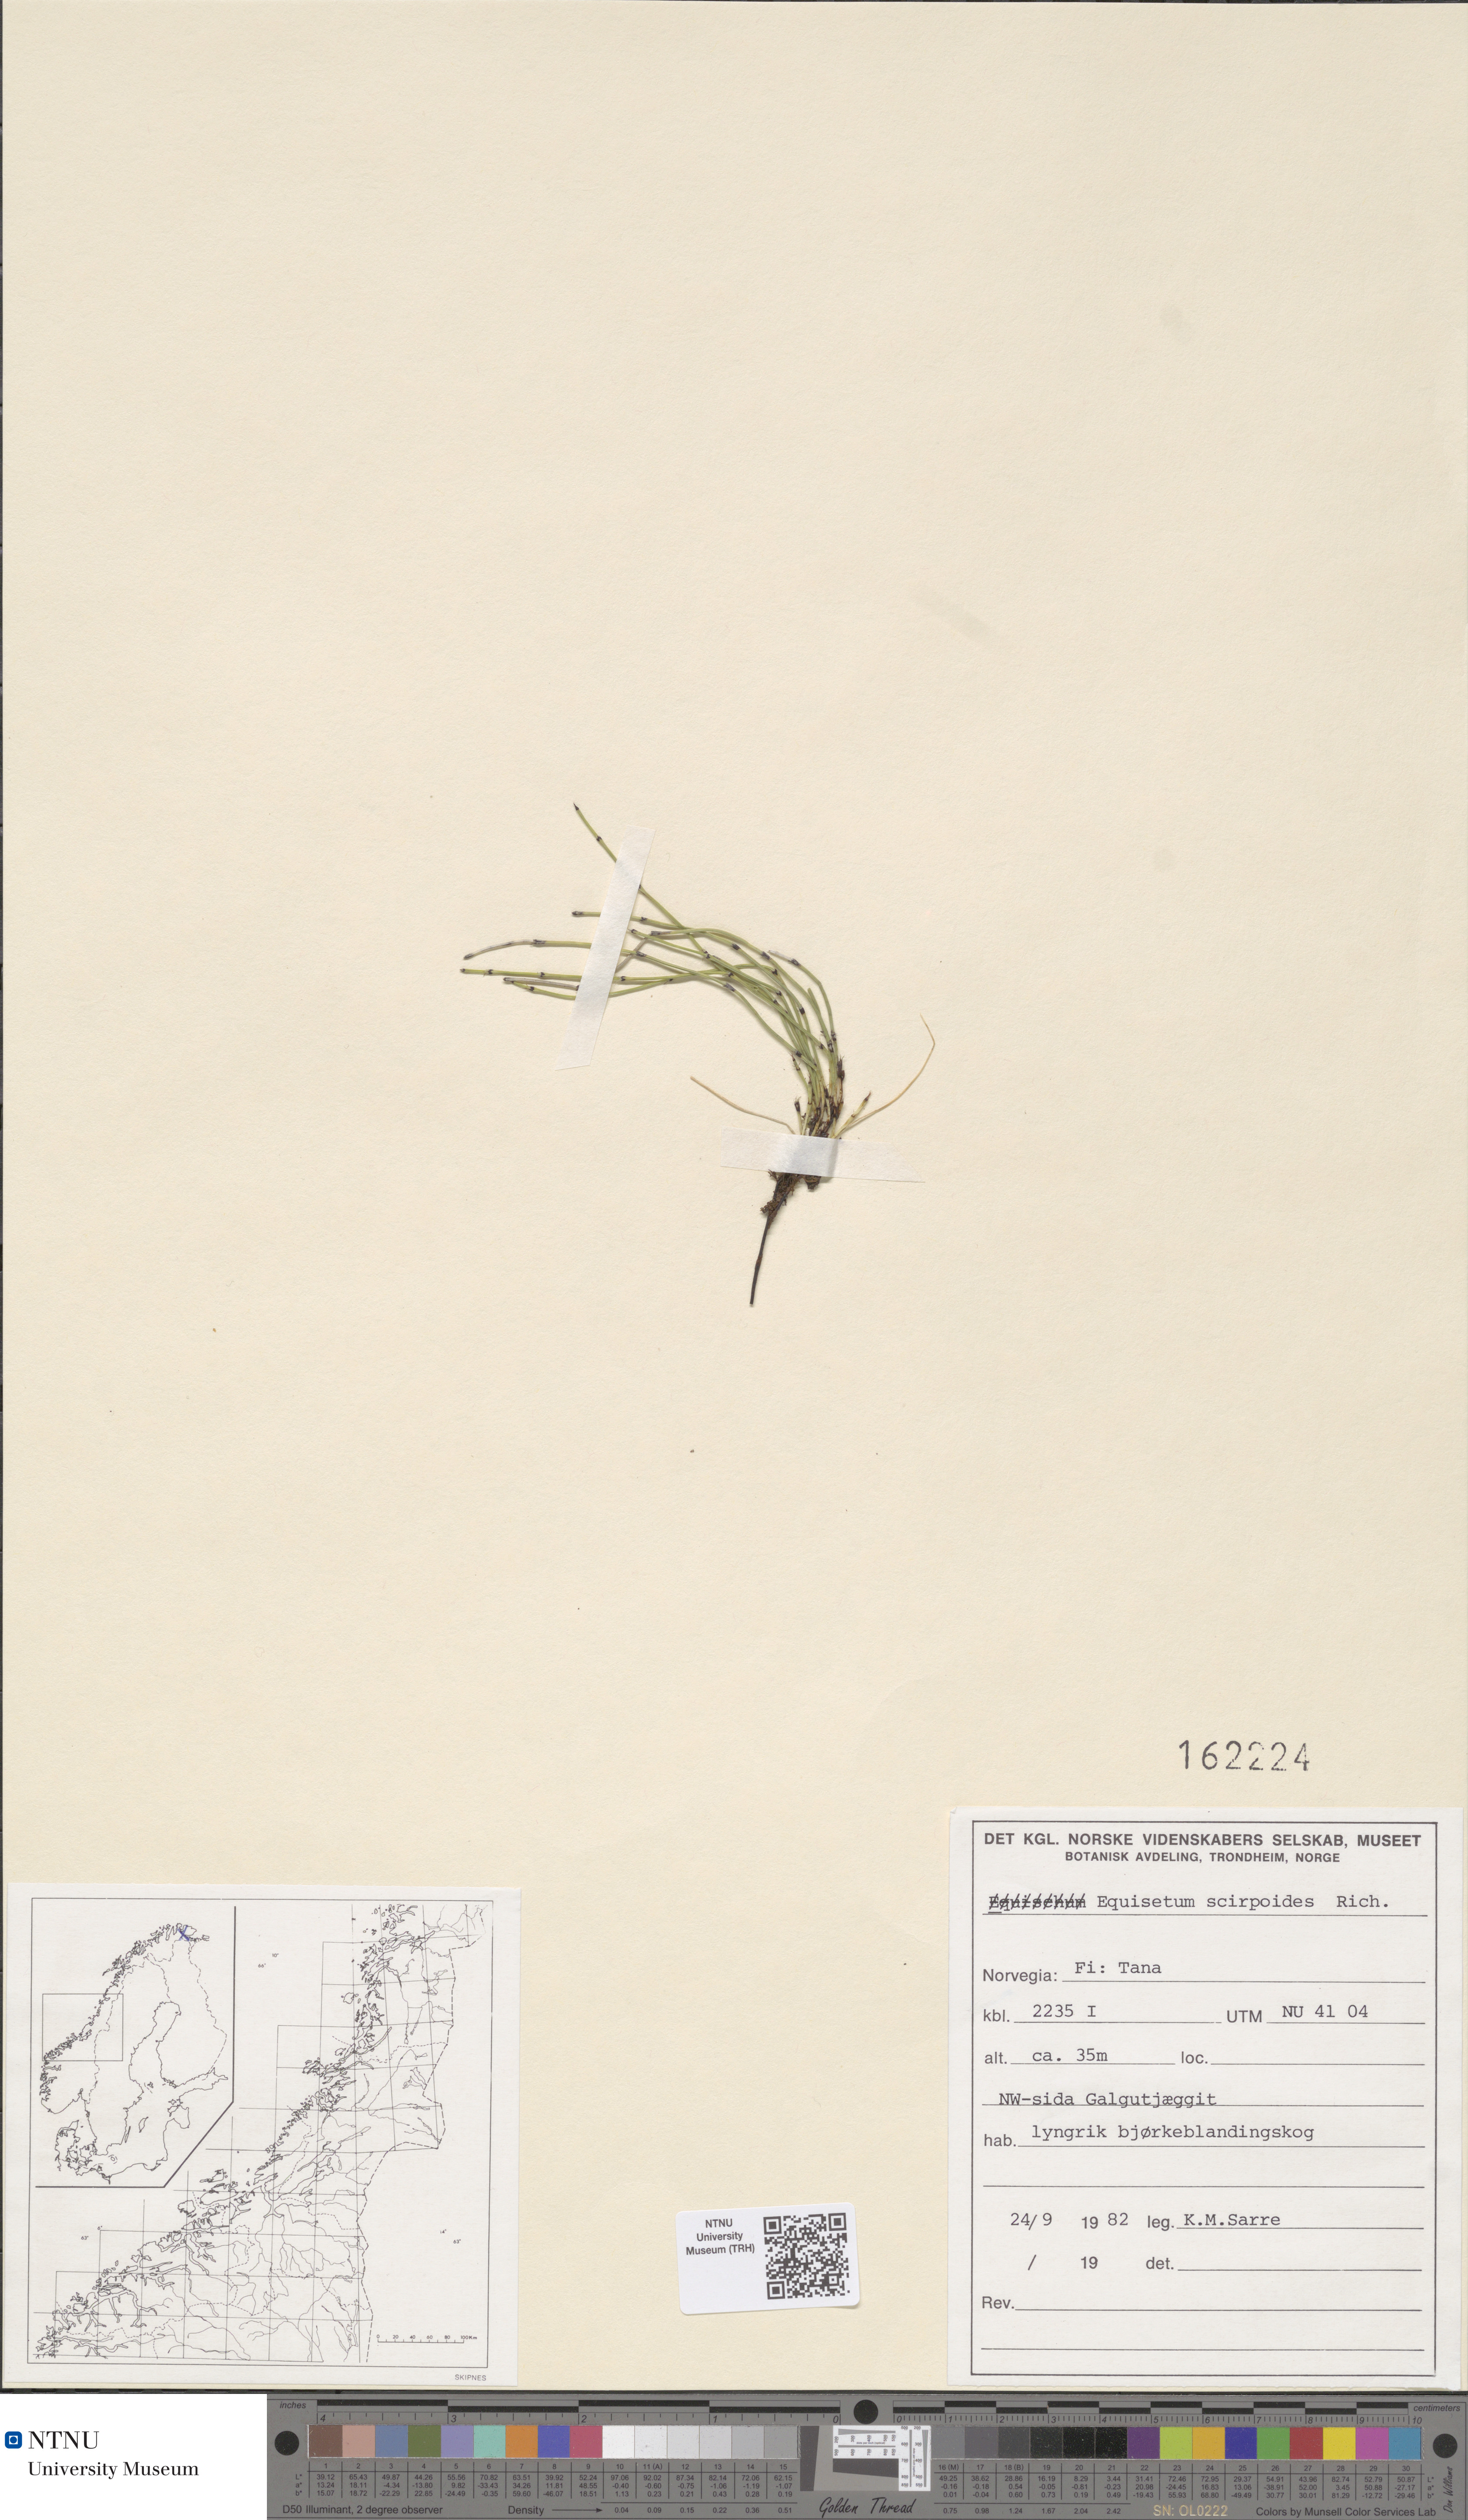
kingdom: Plantae
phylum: Tracheophyta
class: Polypodiopsida
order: Equisetales
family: Equisetaceae
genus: Equisetum
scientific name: Equisetum scirpoides
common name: Delicate horsetail
